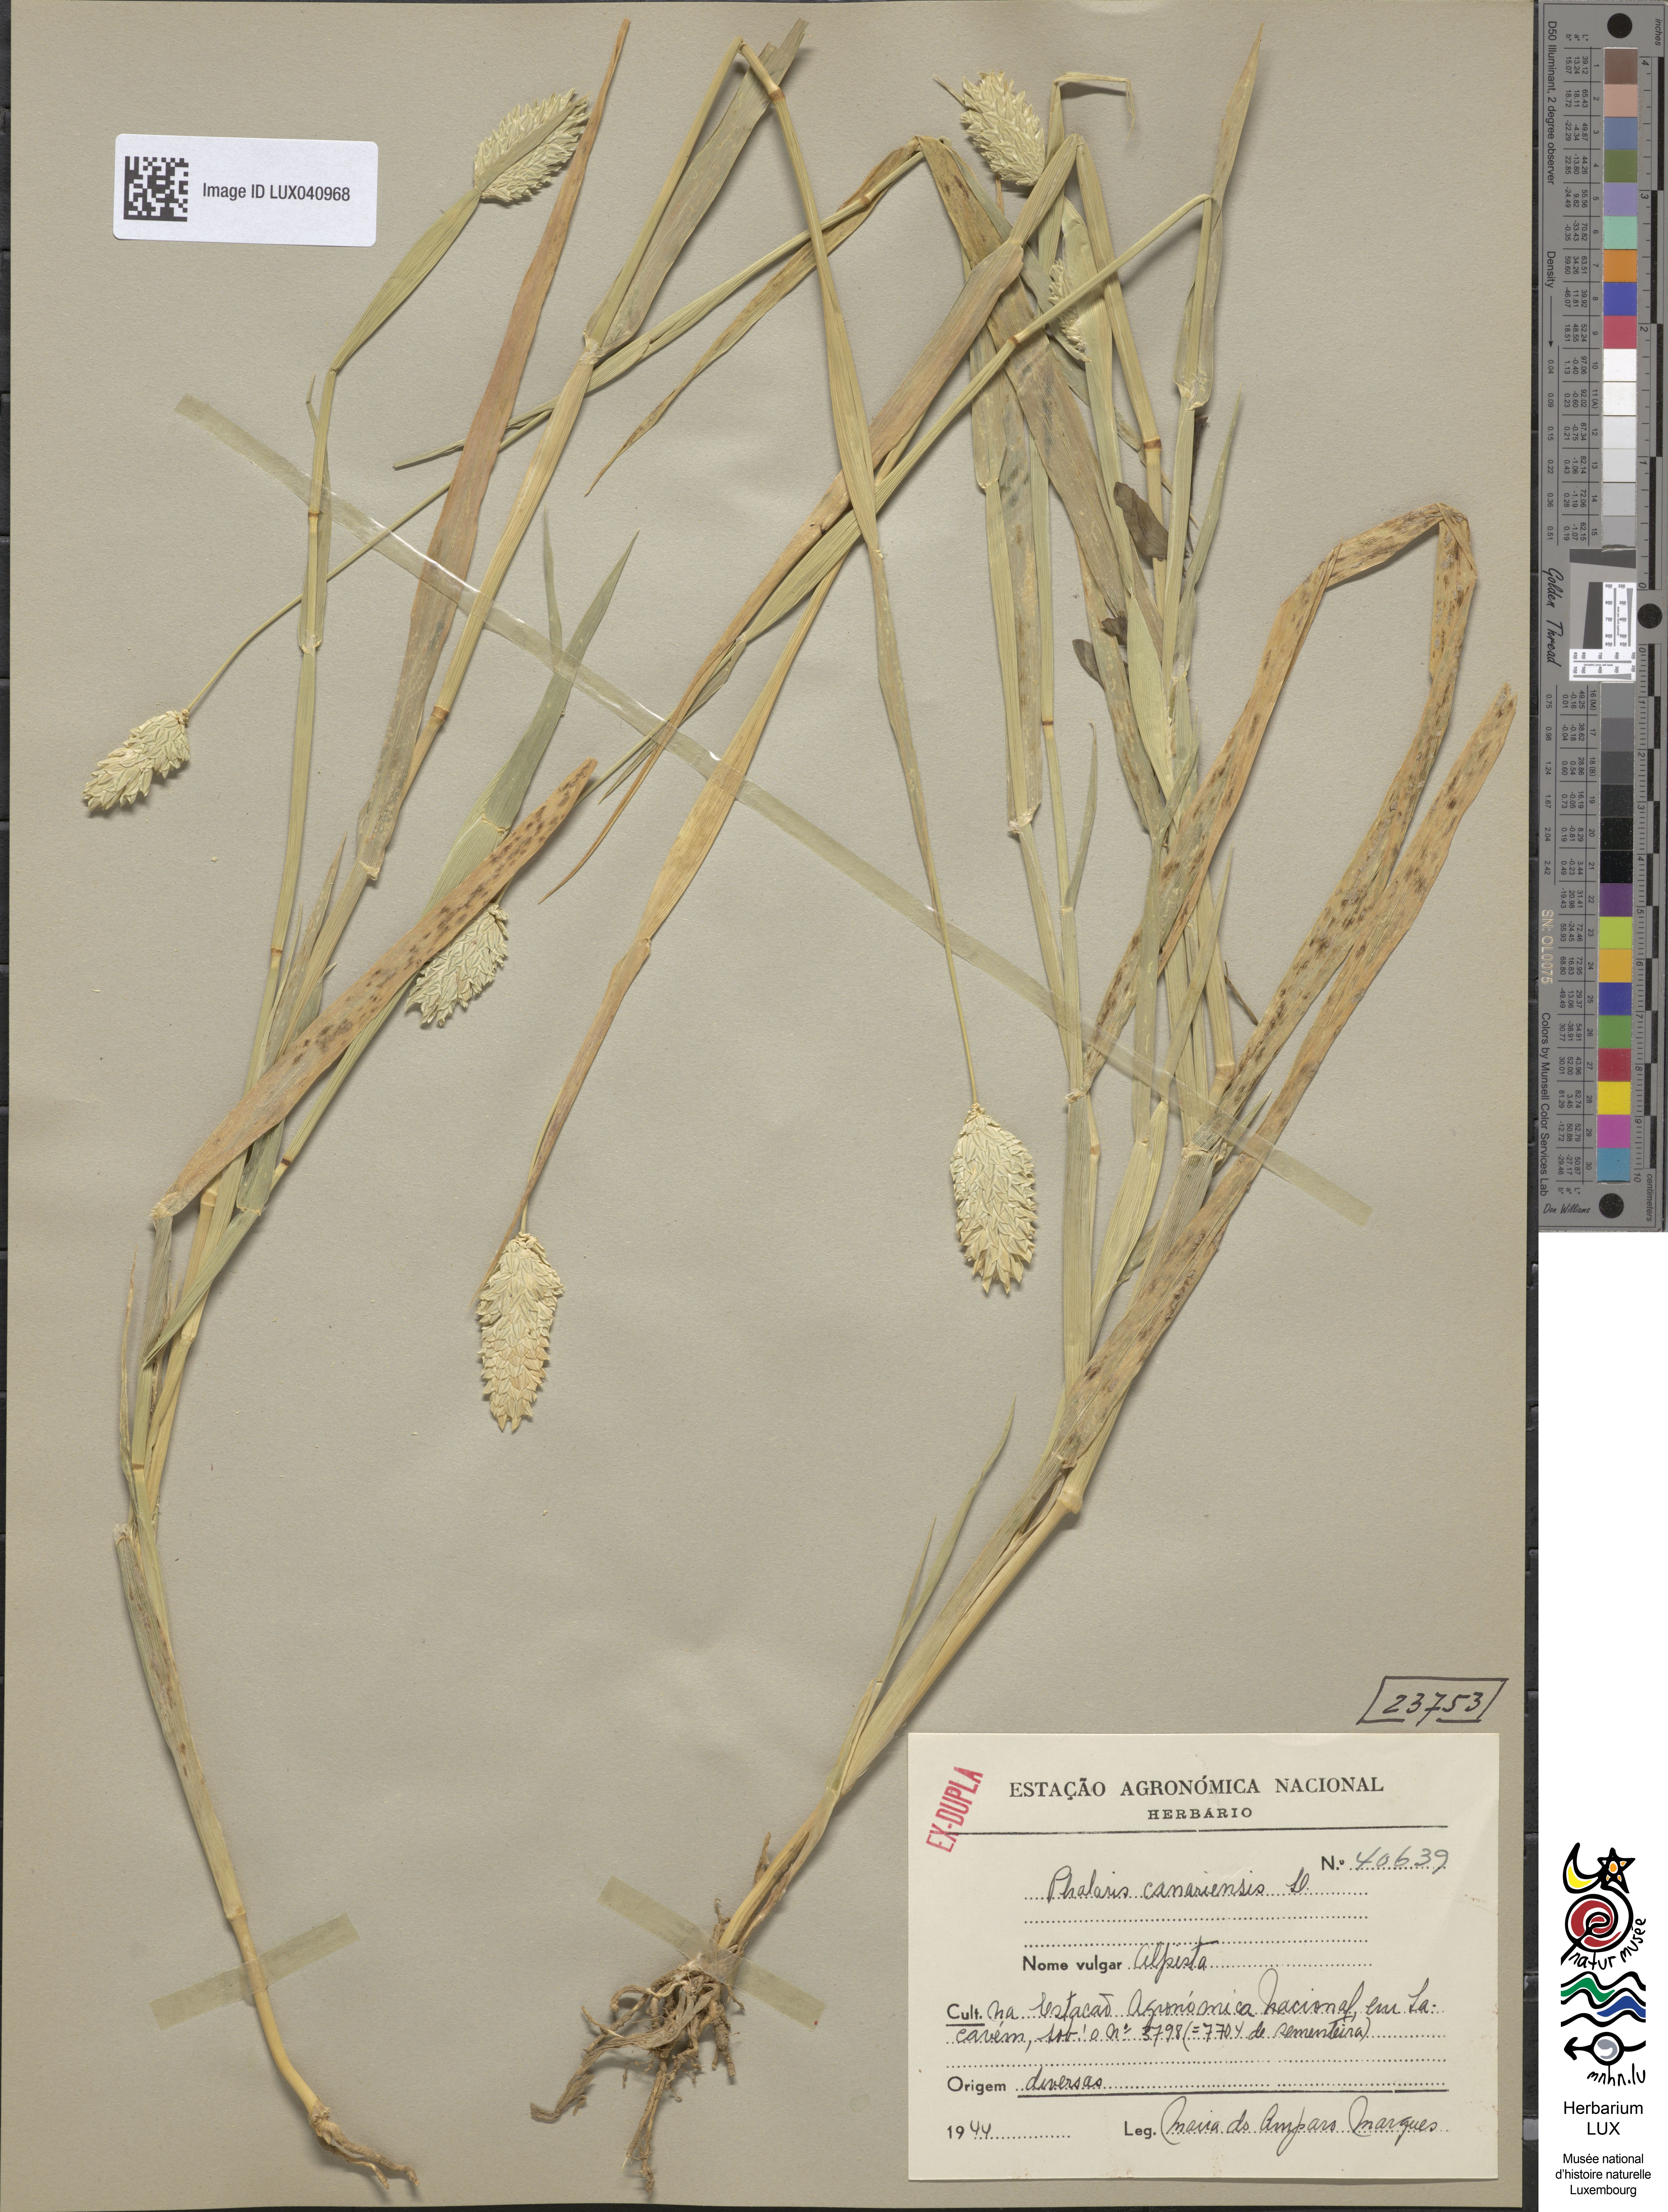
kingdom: Plantae
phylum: Tracheophyta
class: Liliopsida
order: Poales
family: Poaceae
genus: Phalaris
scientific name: Phalaris canariensis
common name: Annual canarygrass
